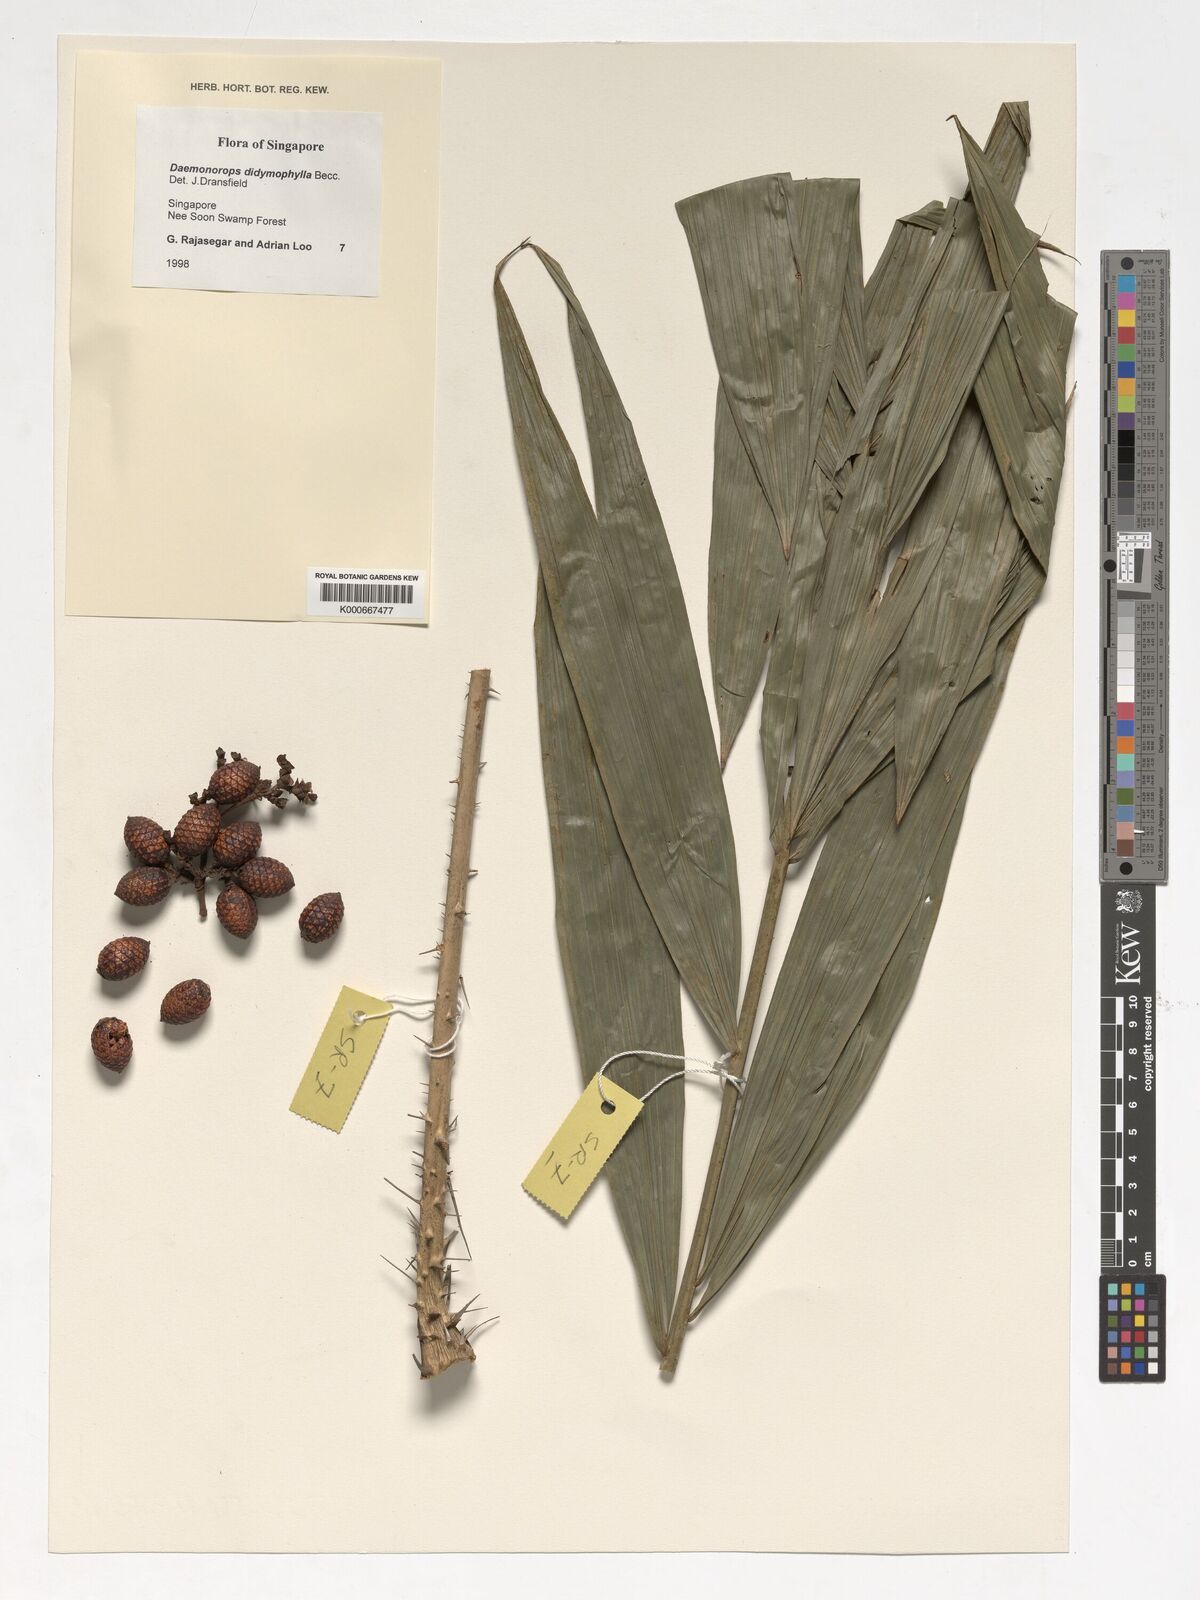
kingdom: Plantae
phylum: Tracheophyta
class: Liliopsida
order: Arecales
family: Arecaceae
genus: Calamus
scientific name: Calamus gracilipes
